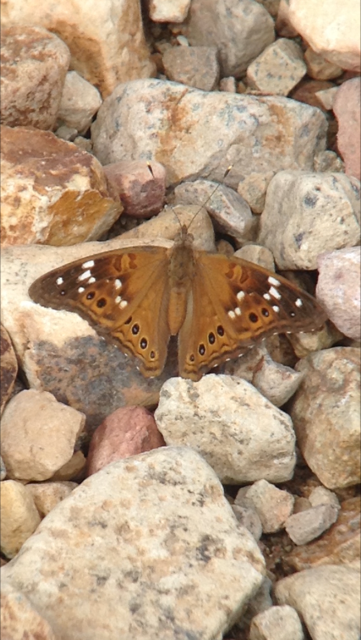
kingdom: Animalia
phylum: Arthropoda
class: Insecta
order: Lepidoptera
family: Nymphalidae
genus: Asterocampa
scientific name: Asterocampa leilia
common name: Empress Leilia
